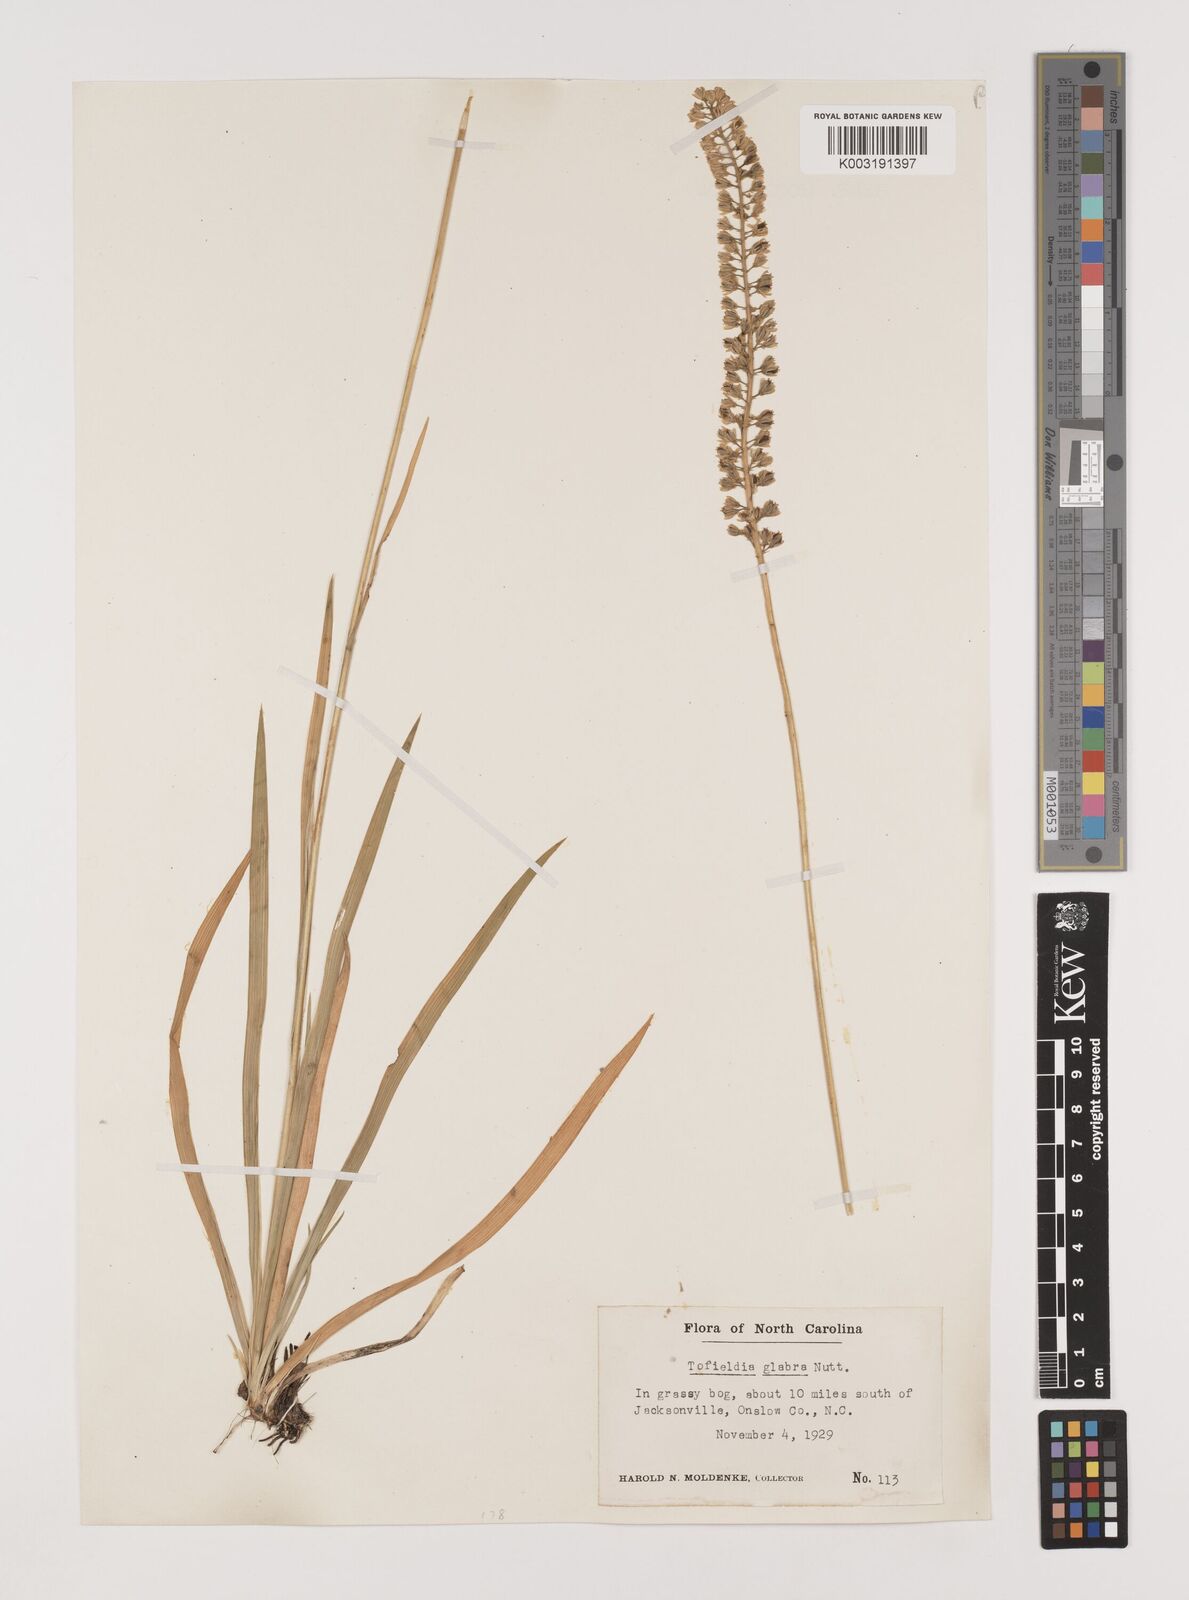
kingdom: Plantae
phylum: Tracheophyta
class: Liliopsida
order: Alismatales
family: Tofieldiaceae
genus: Tofieldia
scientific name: Tofieldia glabra
